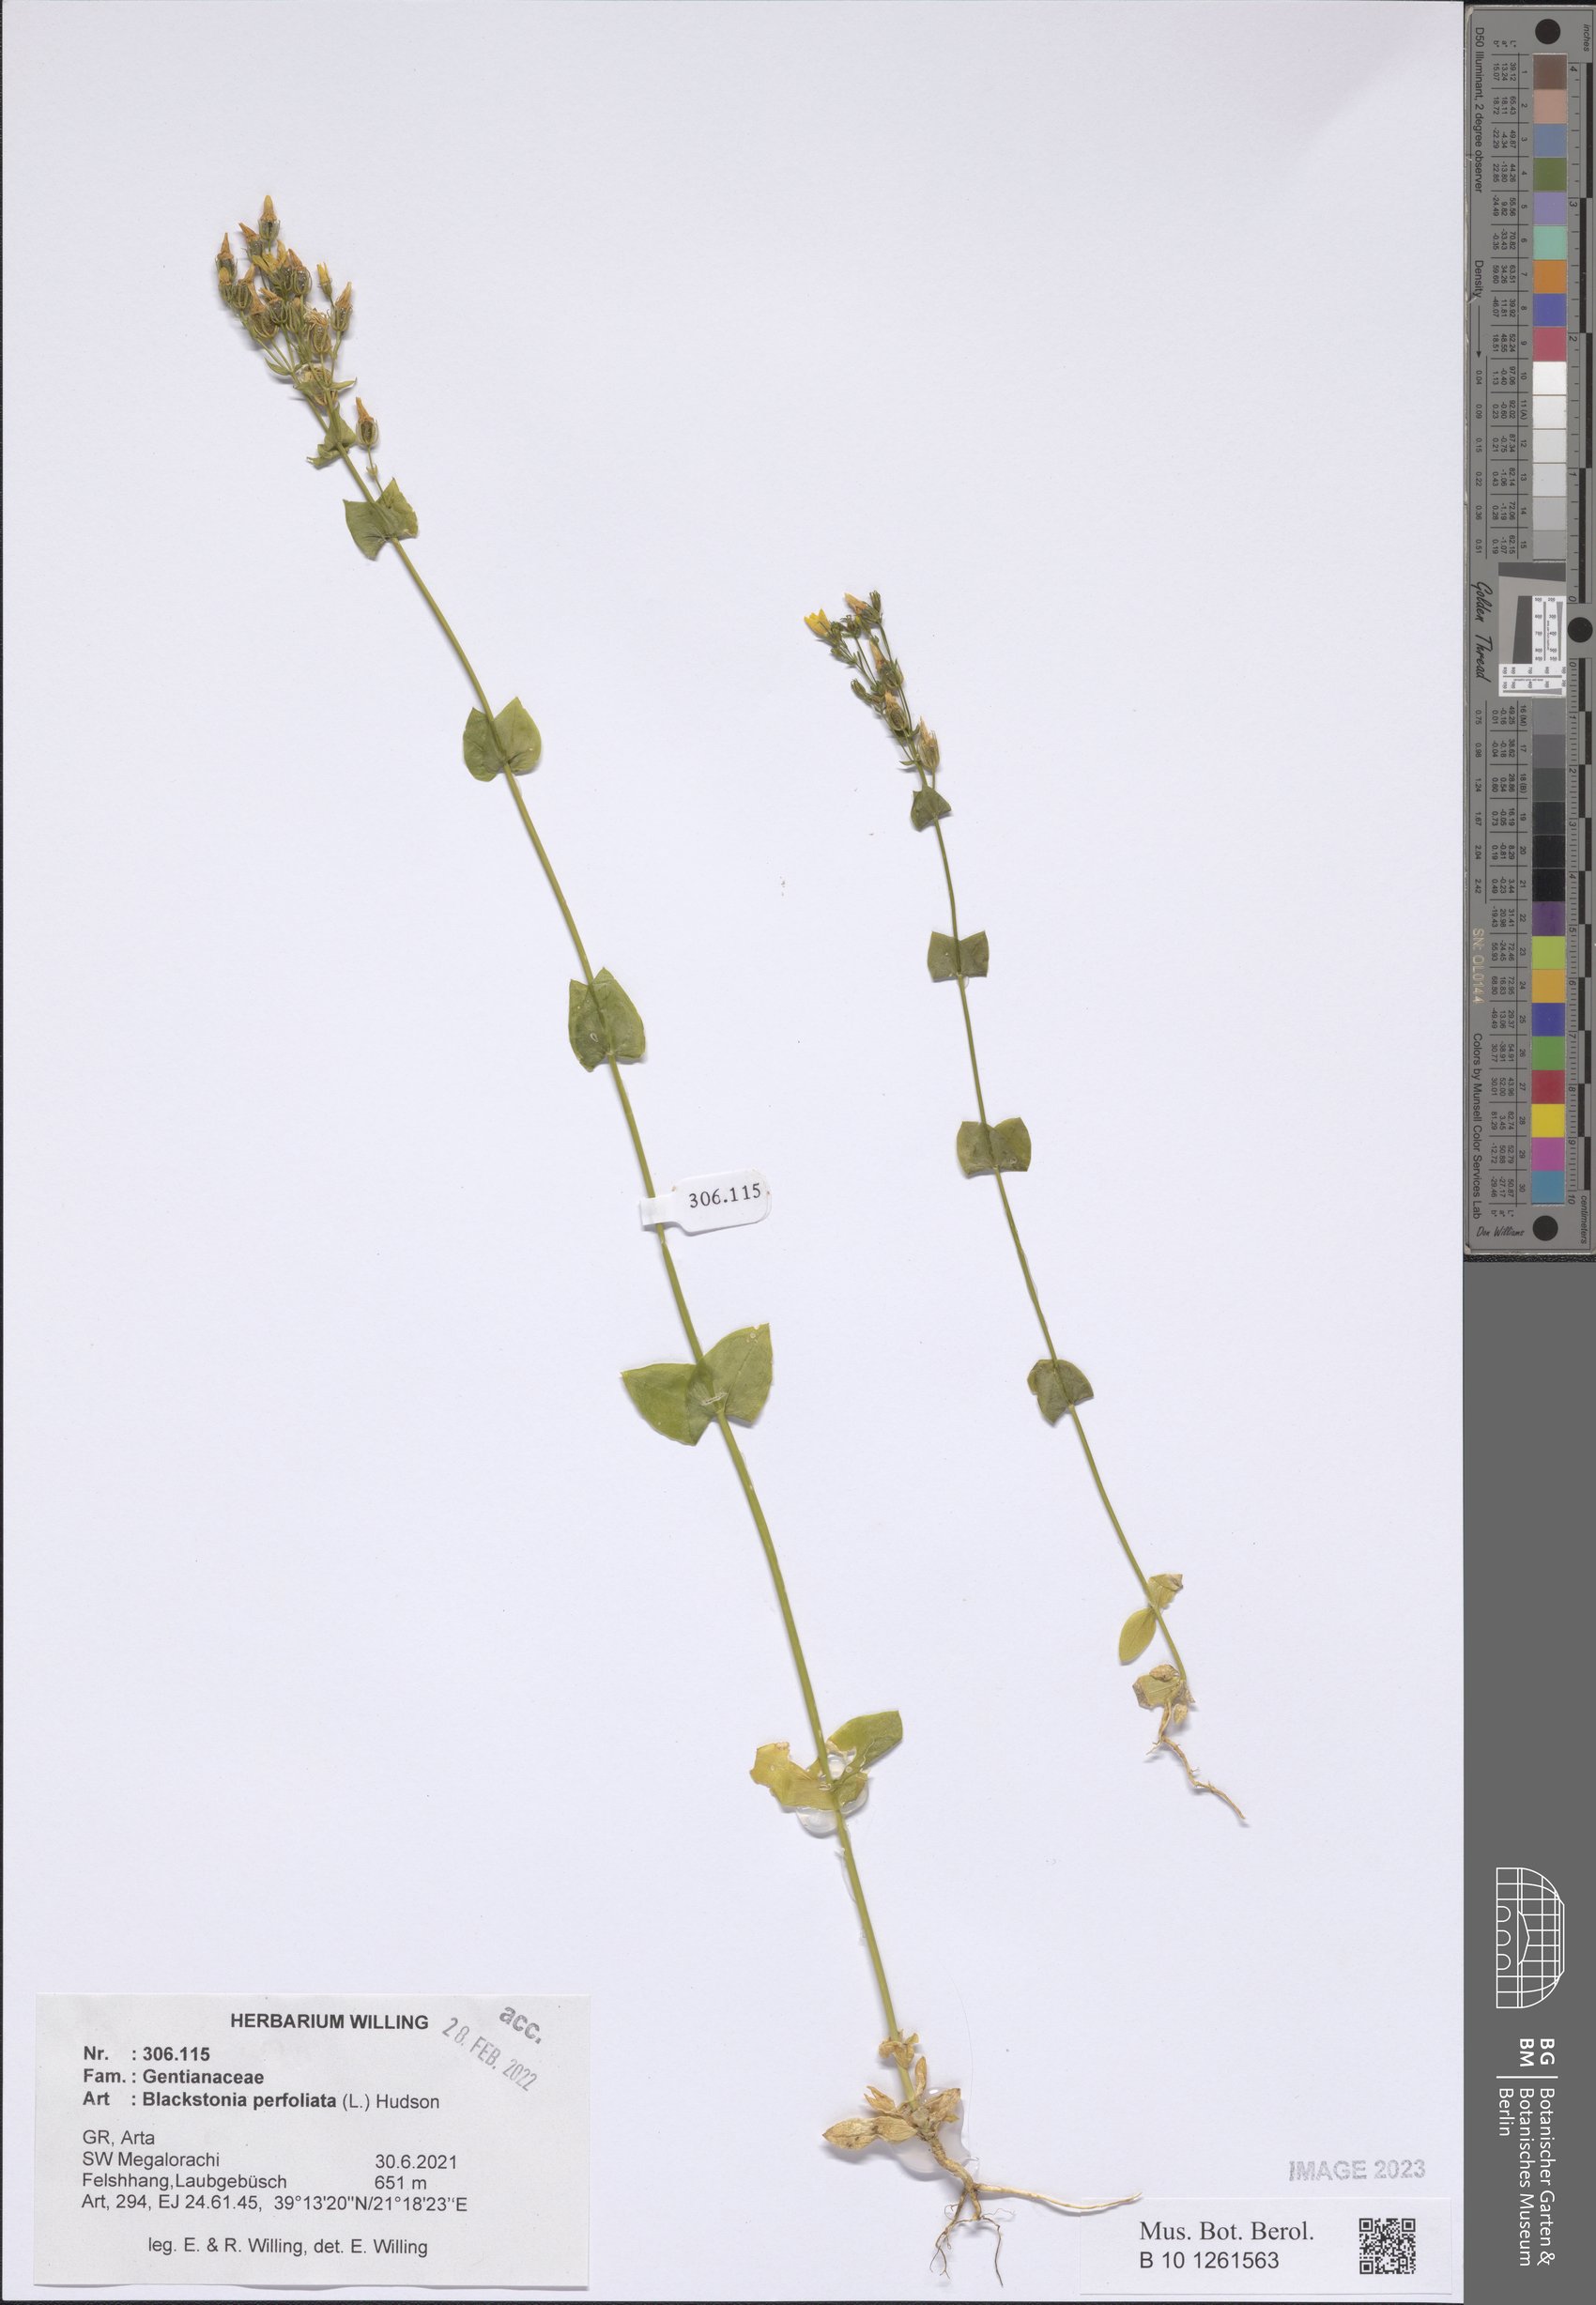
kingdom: Plantae
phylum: Tracheophyta
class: Magnoliopsida
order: Gentianales
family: Gentianaceae
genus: Blackstonia
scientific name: Blackstonia perfoliata
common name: Yellow-wort
